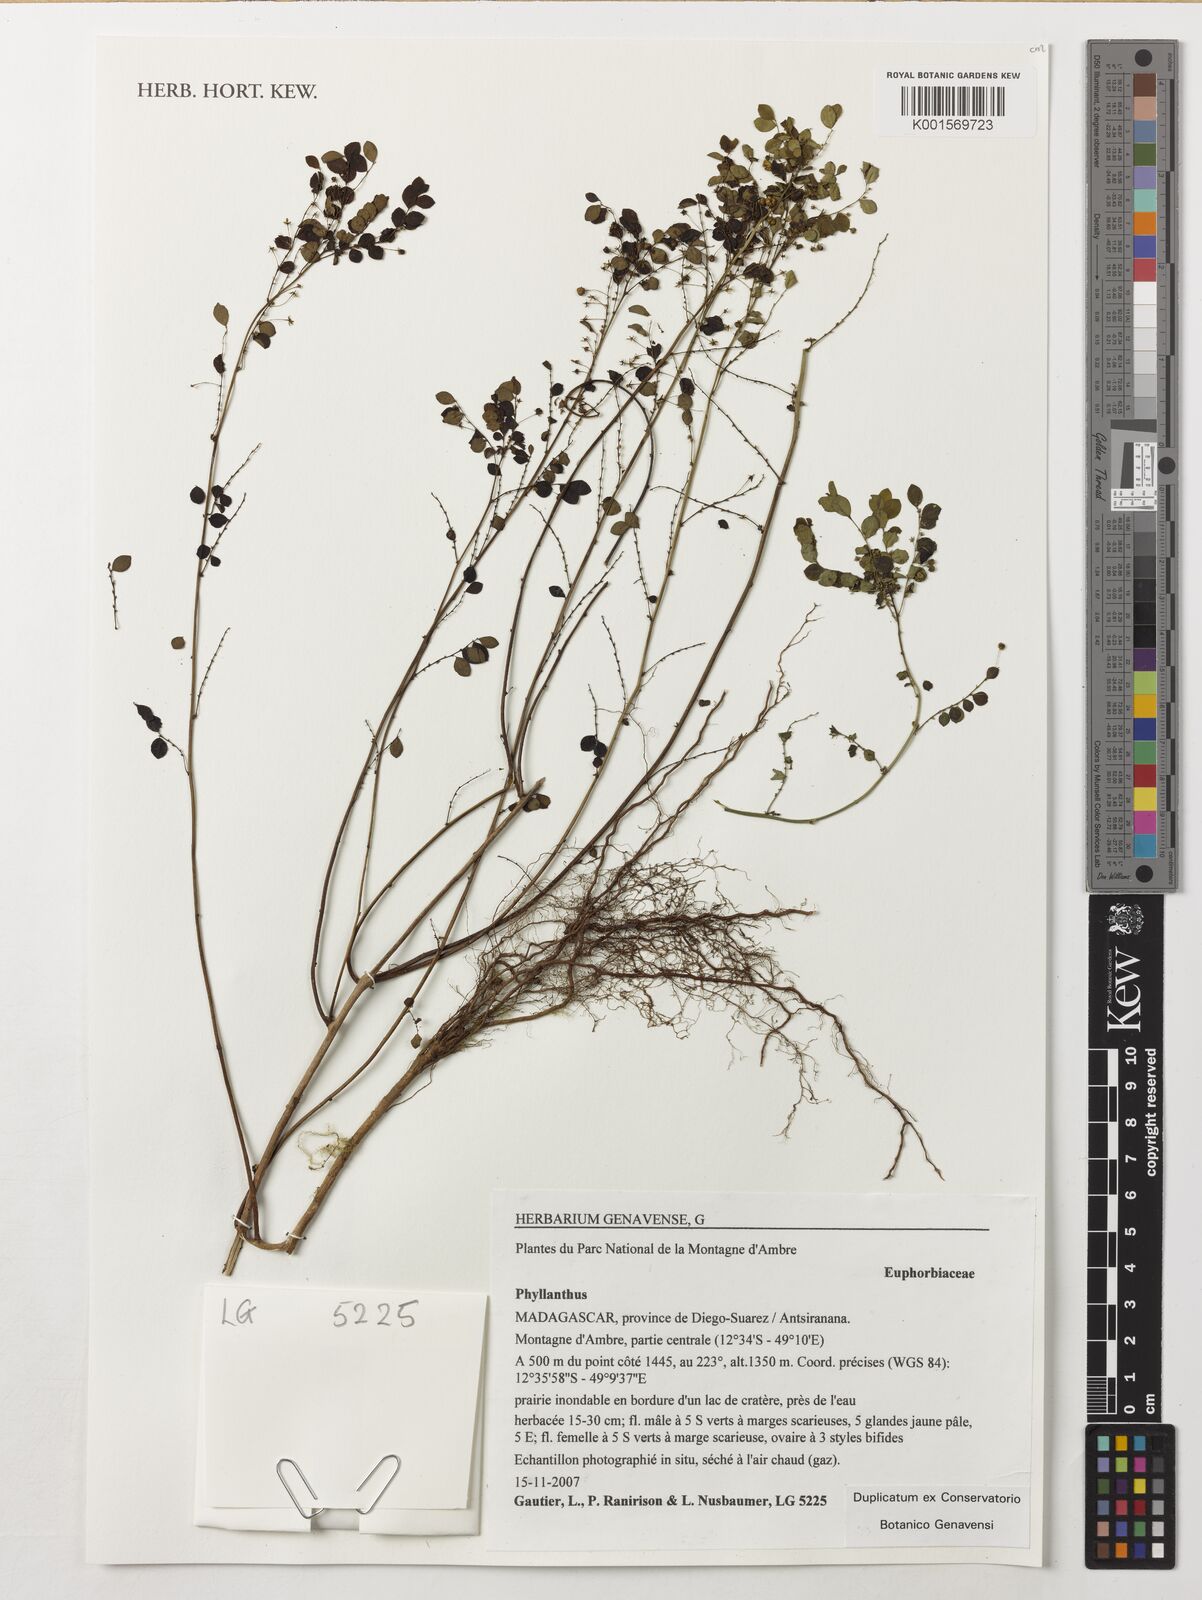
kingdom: Plantae
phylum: Tracheophyta
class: Magnoliopsida
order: Malpighiales
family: Phyllanthaceae
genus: Phyllanthus
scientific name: Phyllanthus
